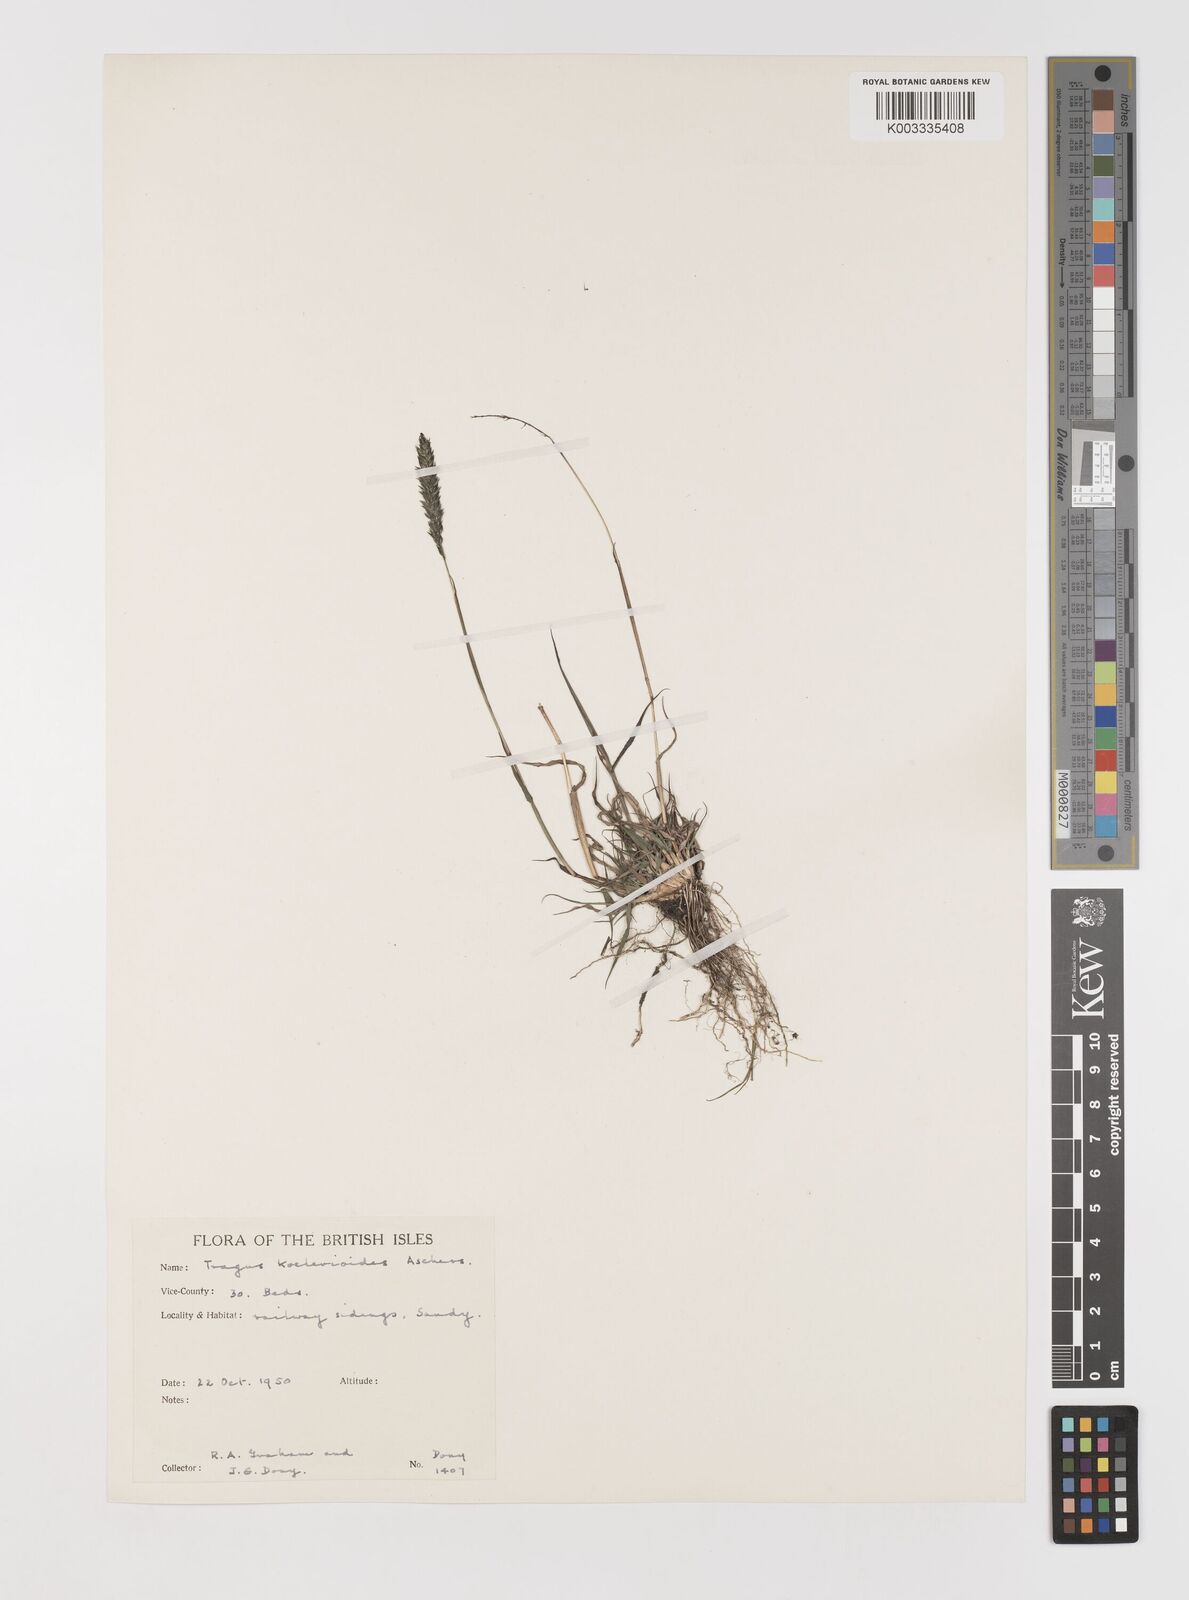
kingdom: Plantae
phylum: Tracheophyta
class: Liliopsida
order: Poales
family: Poaceae
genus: Tragus
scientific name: Tragus koelerioides
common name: Creeping carrot-seed grass
